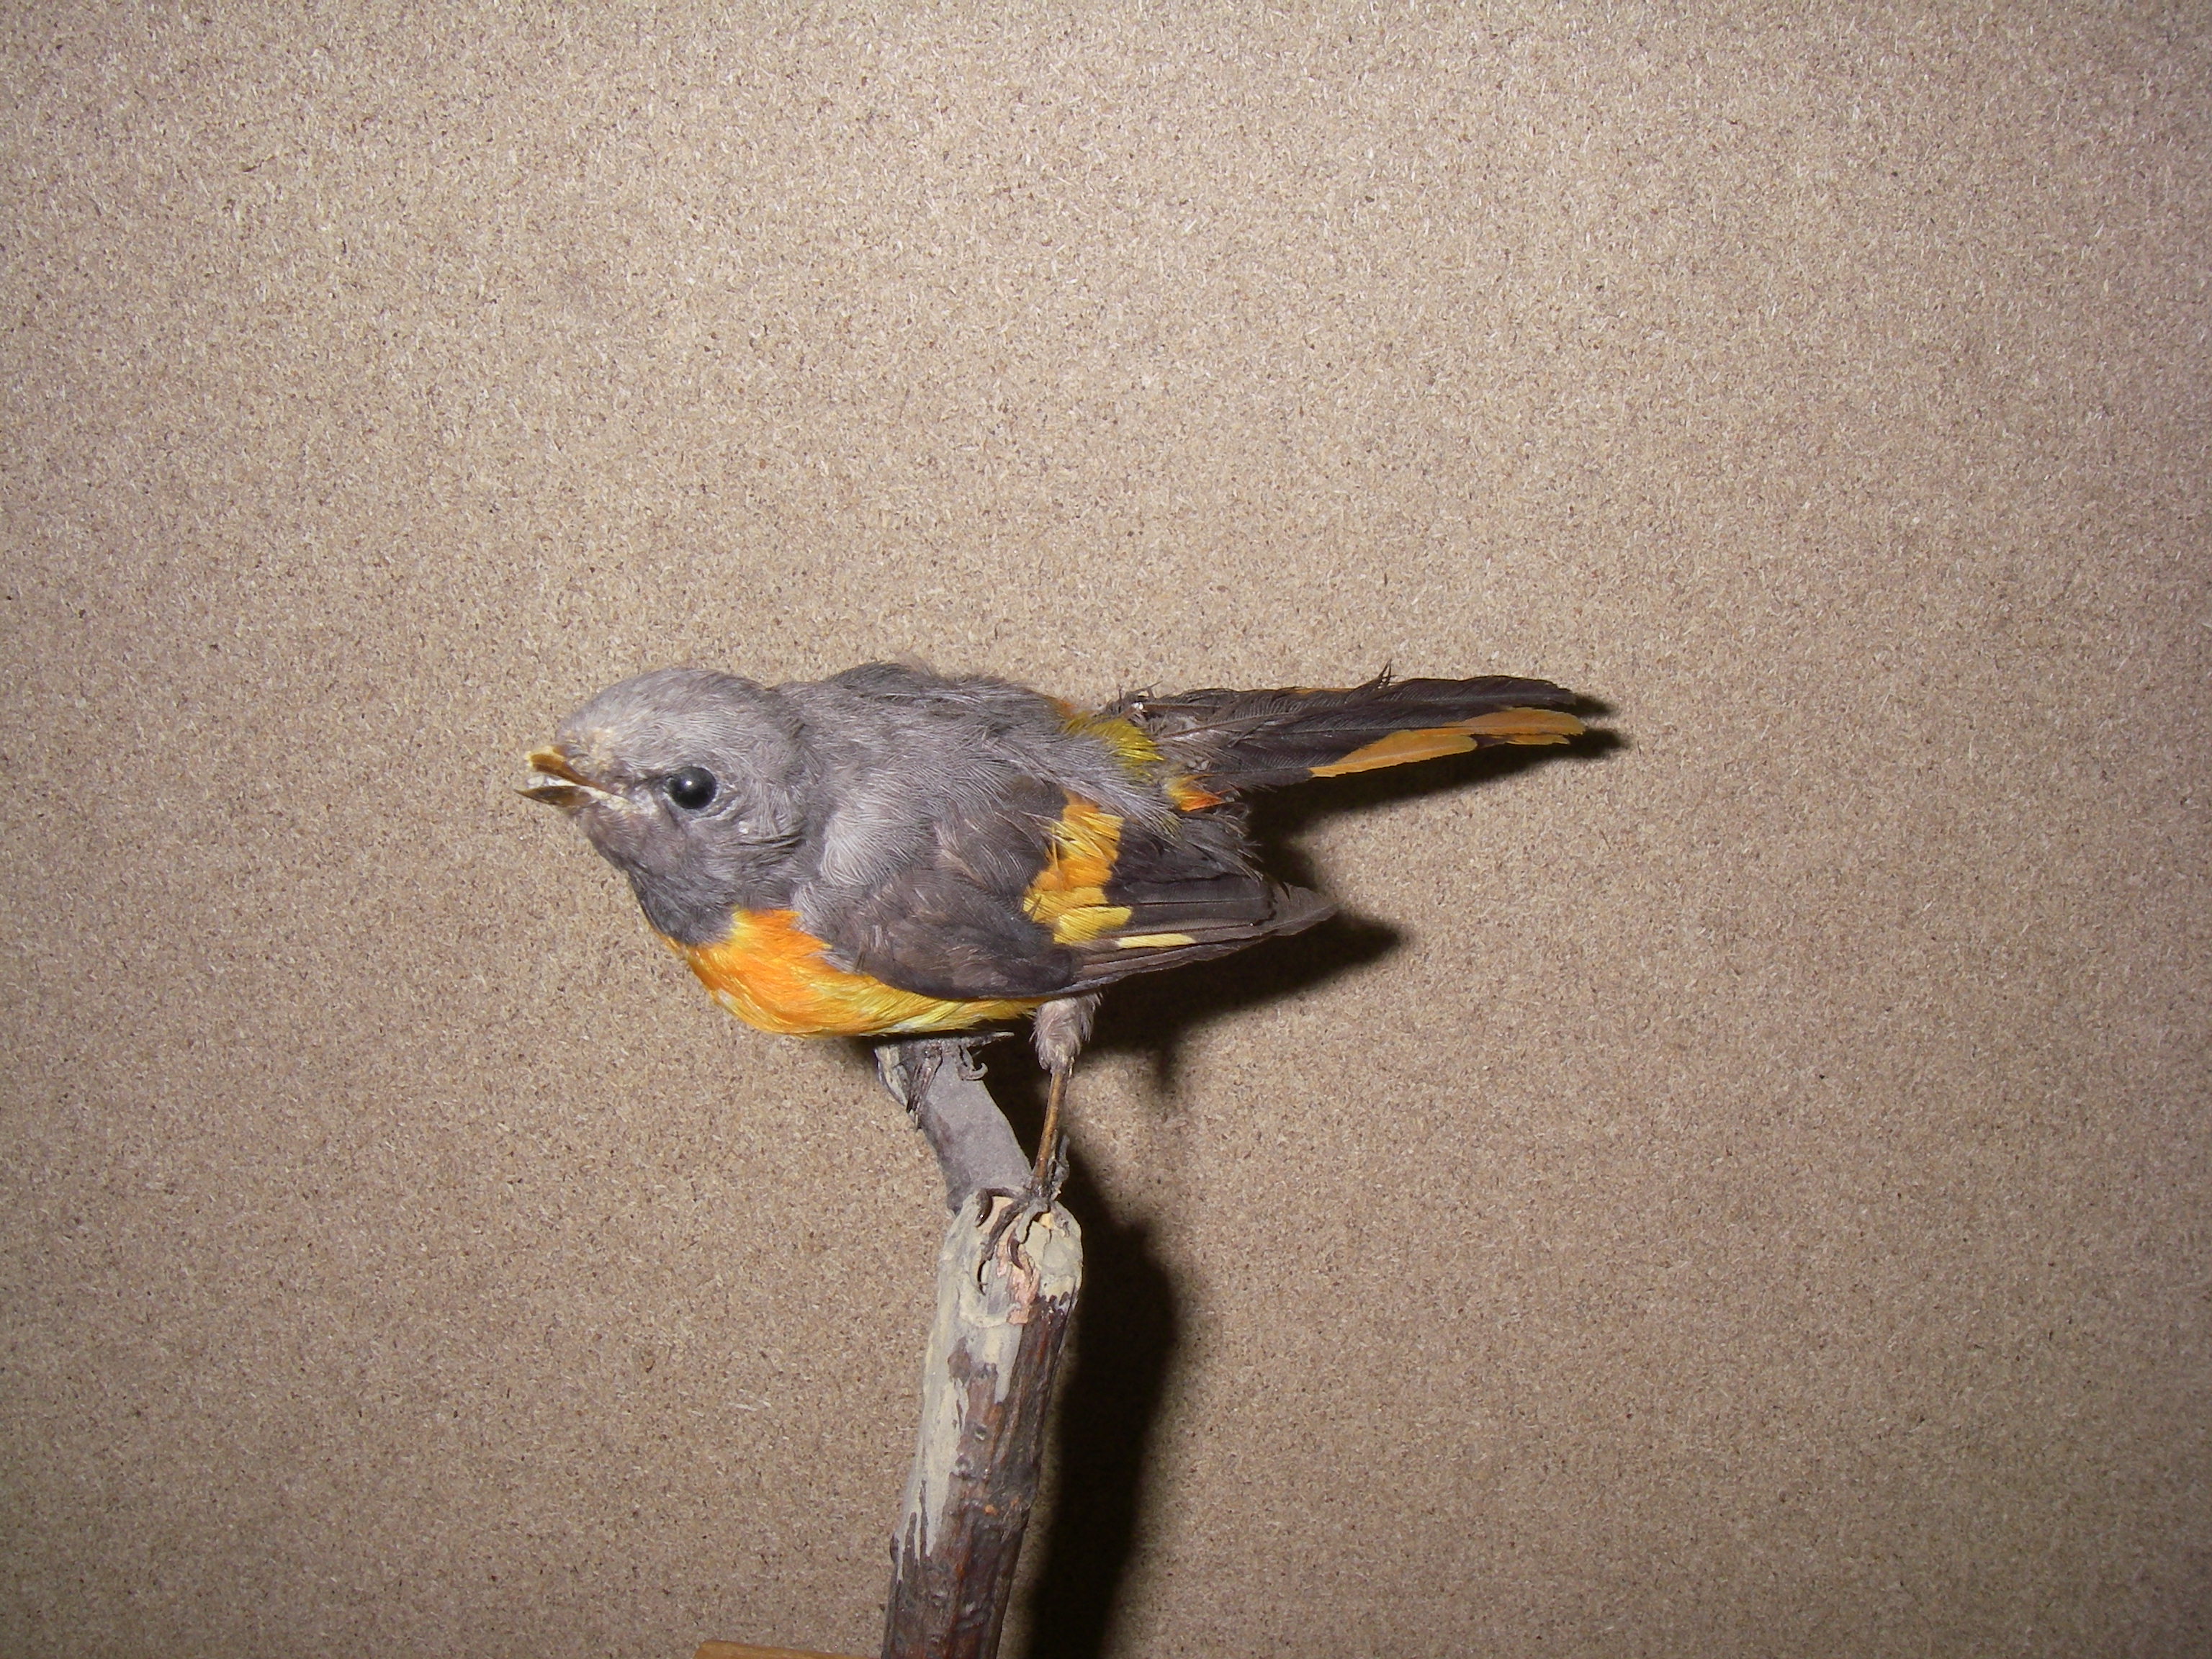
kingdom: Animalia
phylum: Chordata
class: Aves
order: Passeriformes
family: Campephagidae
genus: Pericrocotus
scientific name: Pericrocotus cinnamomeus
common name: Small minivet
